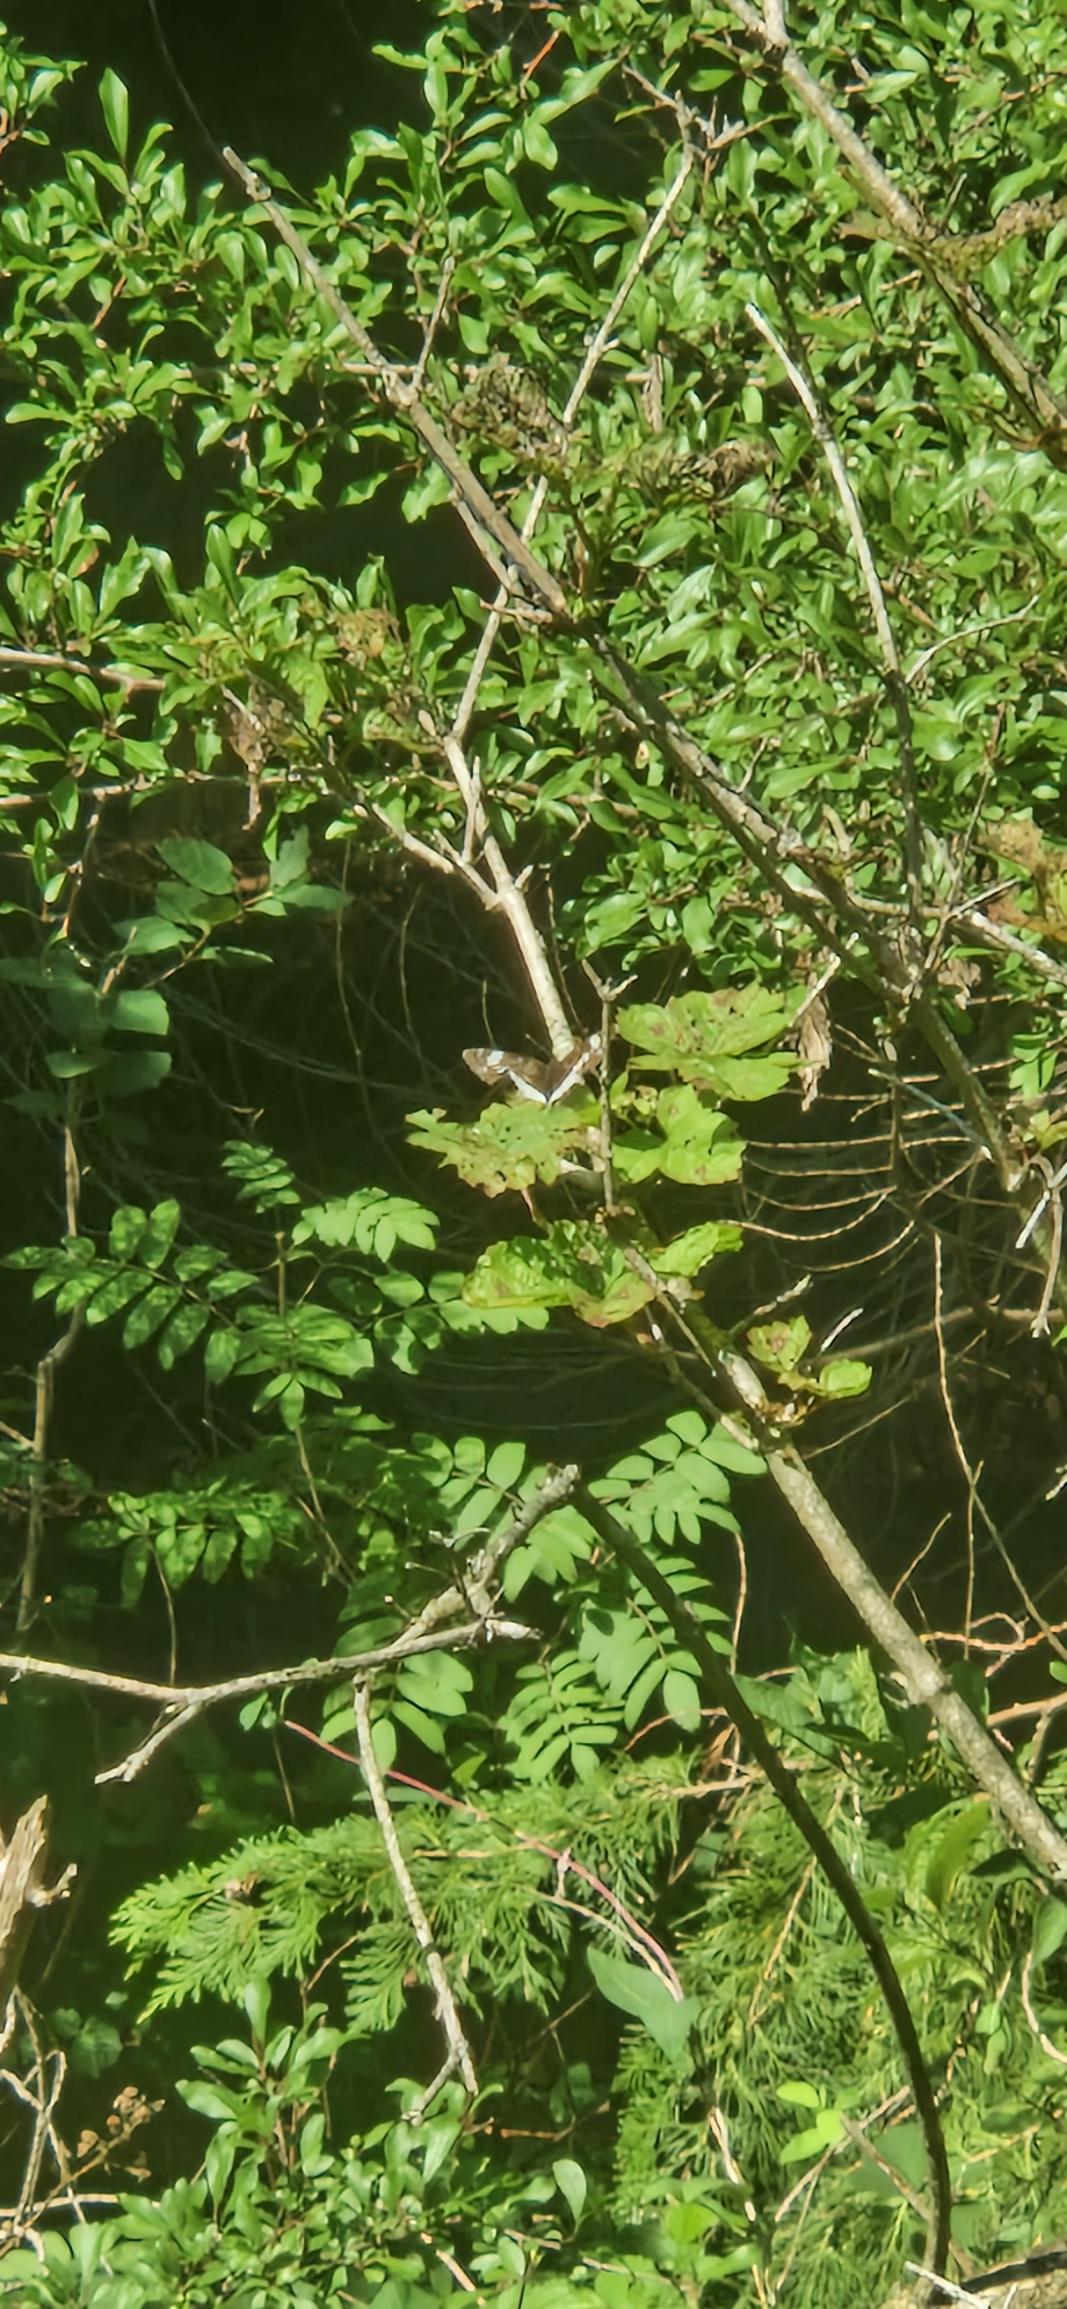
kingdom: Animalia
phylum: Arthropoda
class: Insecta
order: Lepidoptera
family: Nymphalidae
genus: Ladoga
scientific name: Ladoga camilla
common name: Hvid admiral
